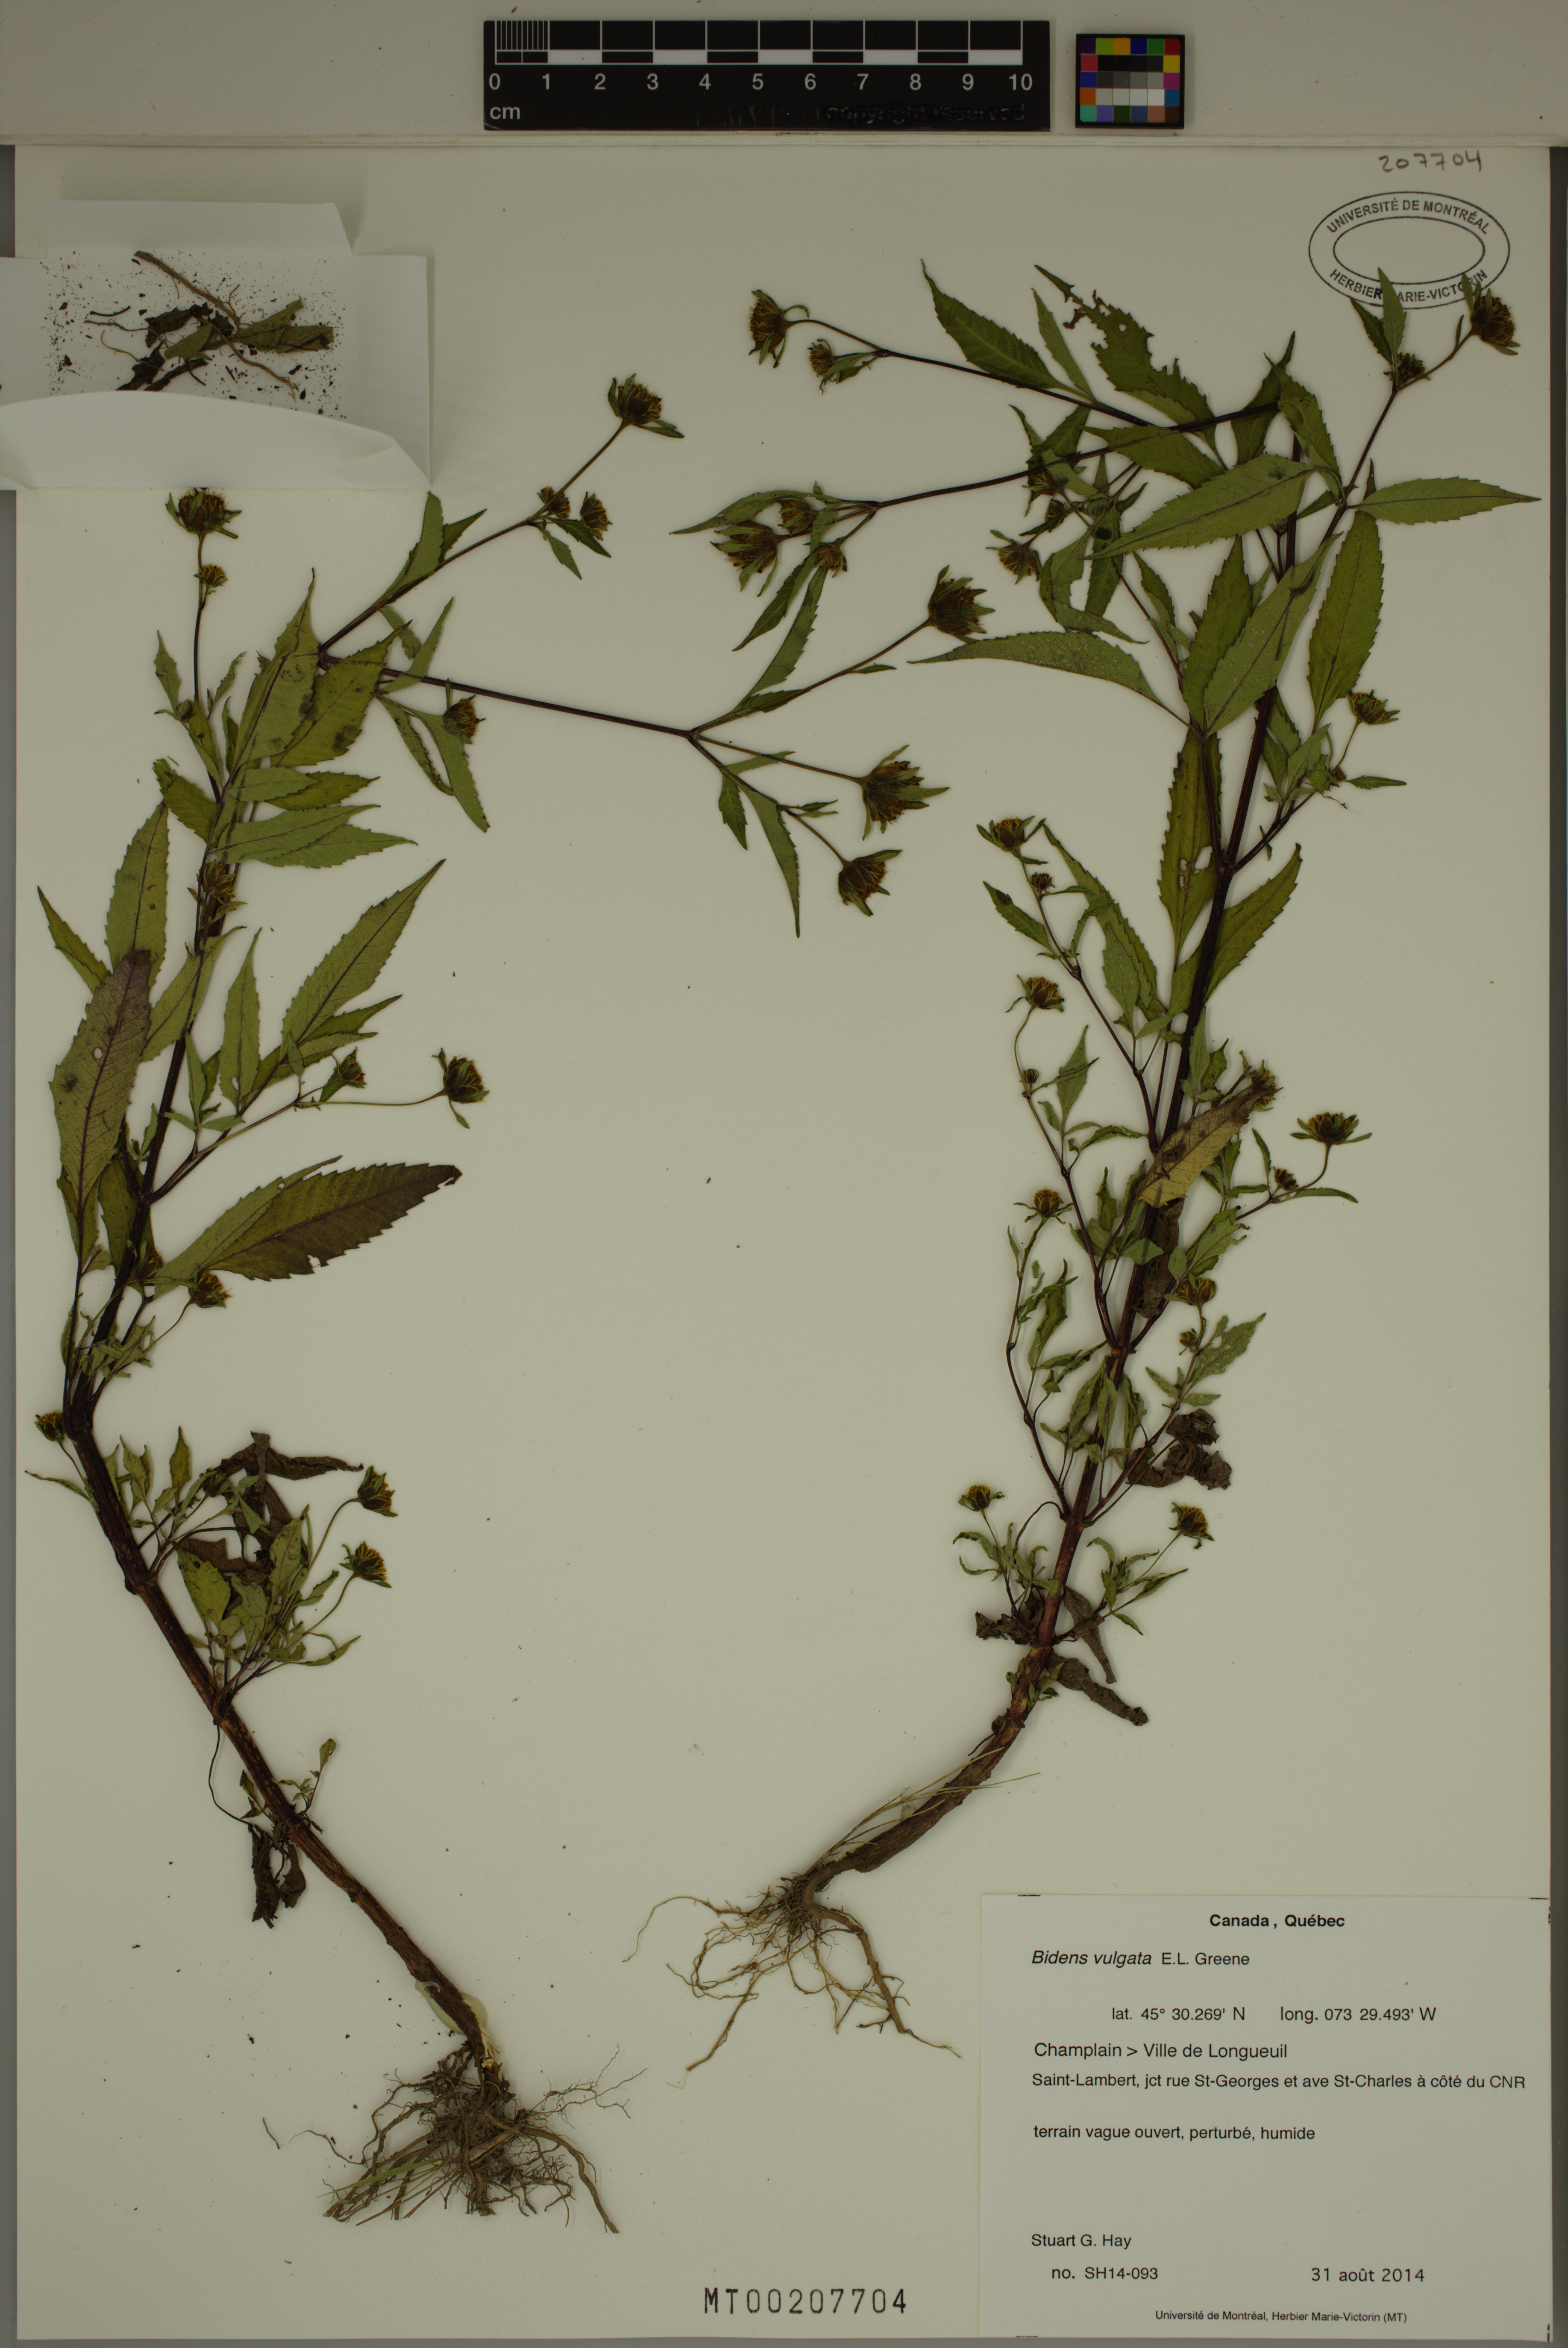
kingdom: Plantae
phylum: Tracheophyta
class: Magnoliopsida
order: Asterales
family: Asteraceae
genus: Bidens
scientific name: Bidens vulgata
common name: Tall beggarticks
